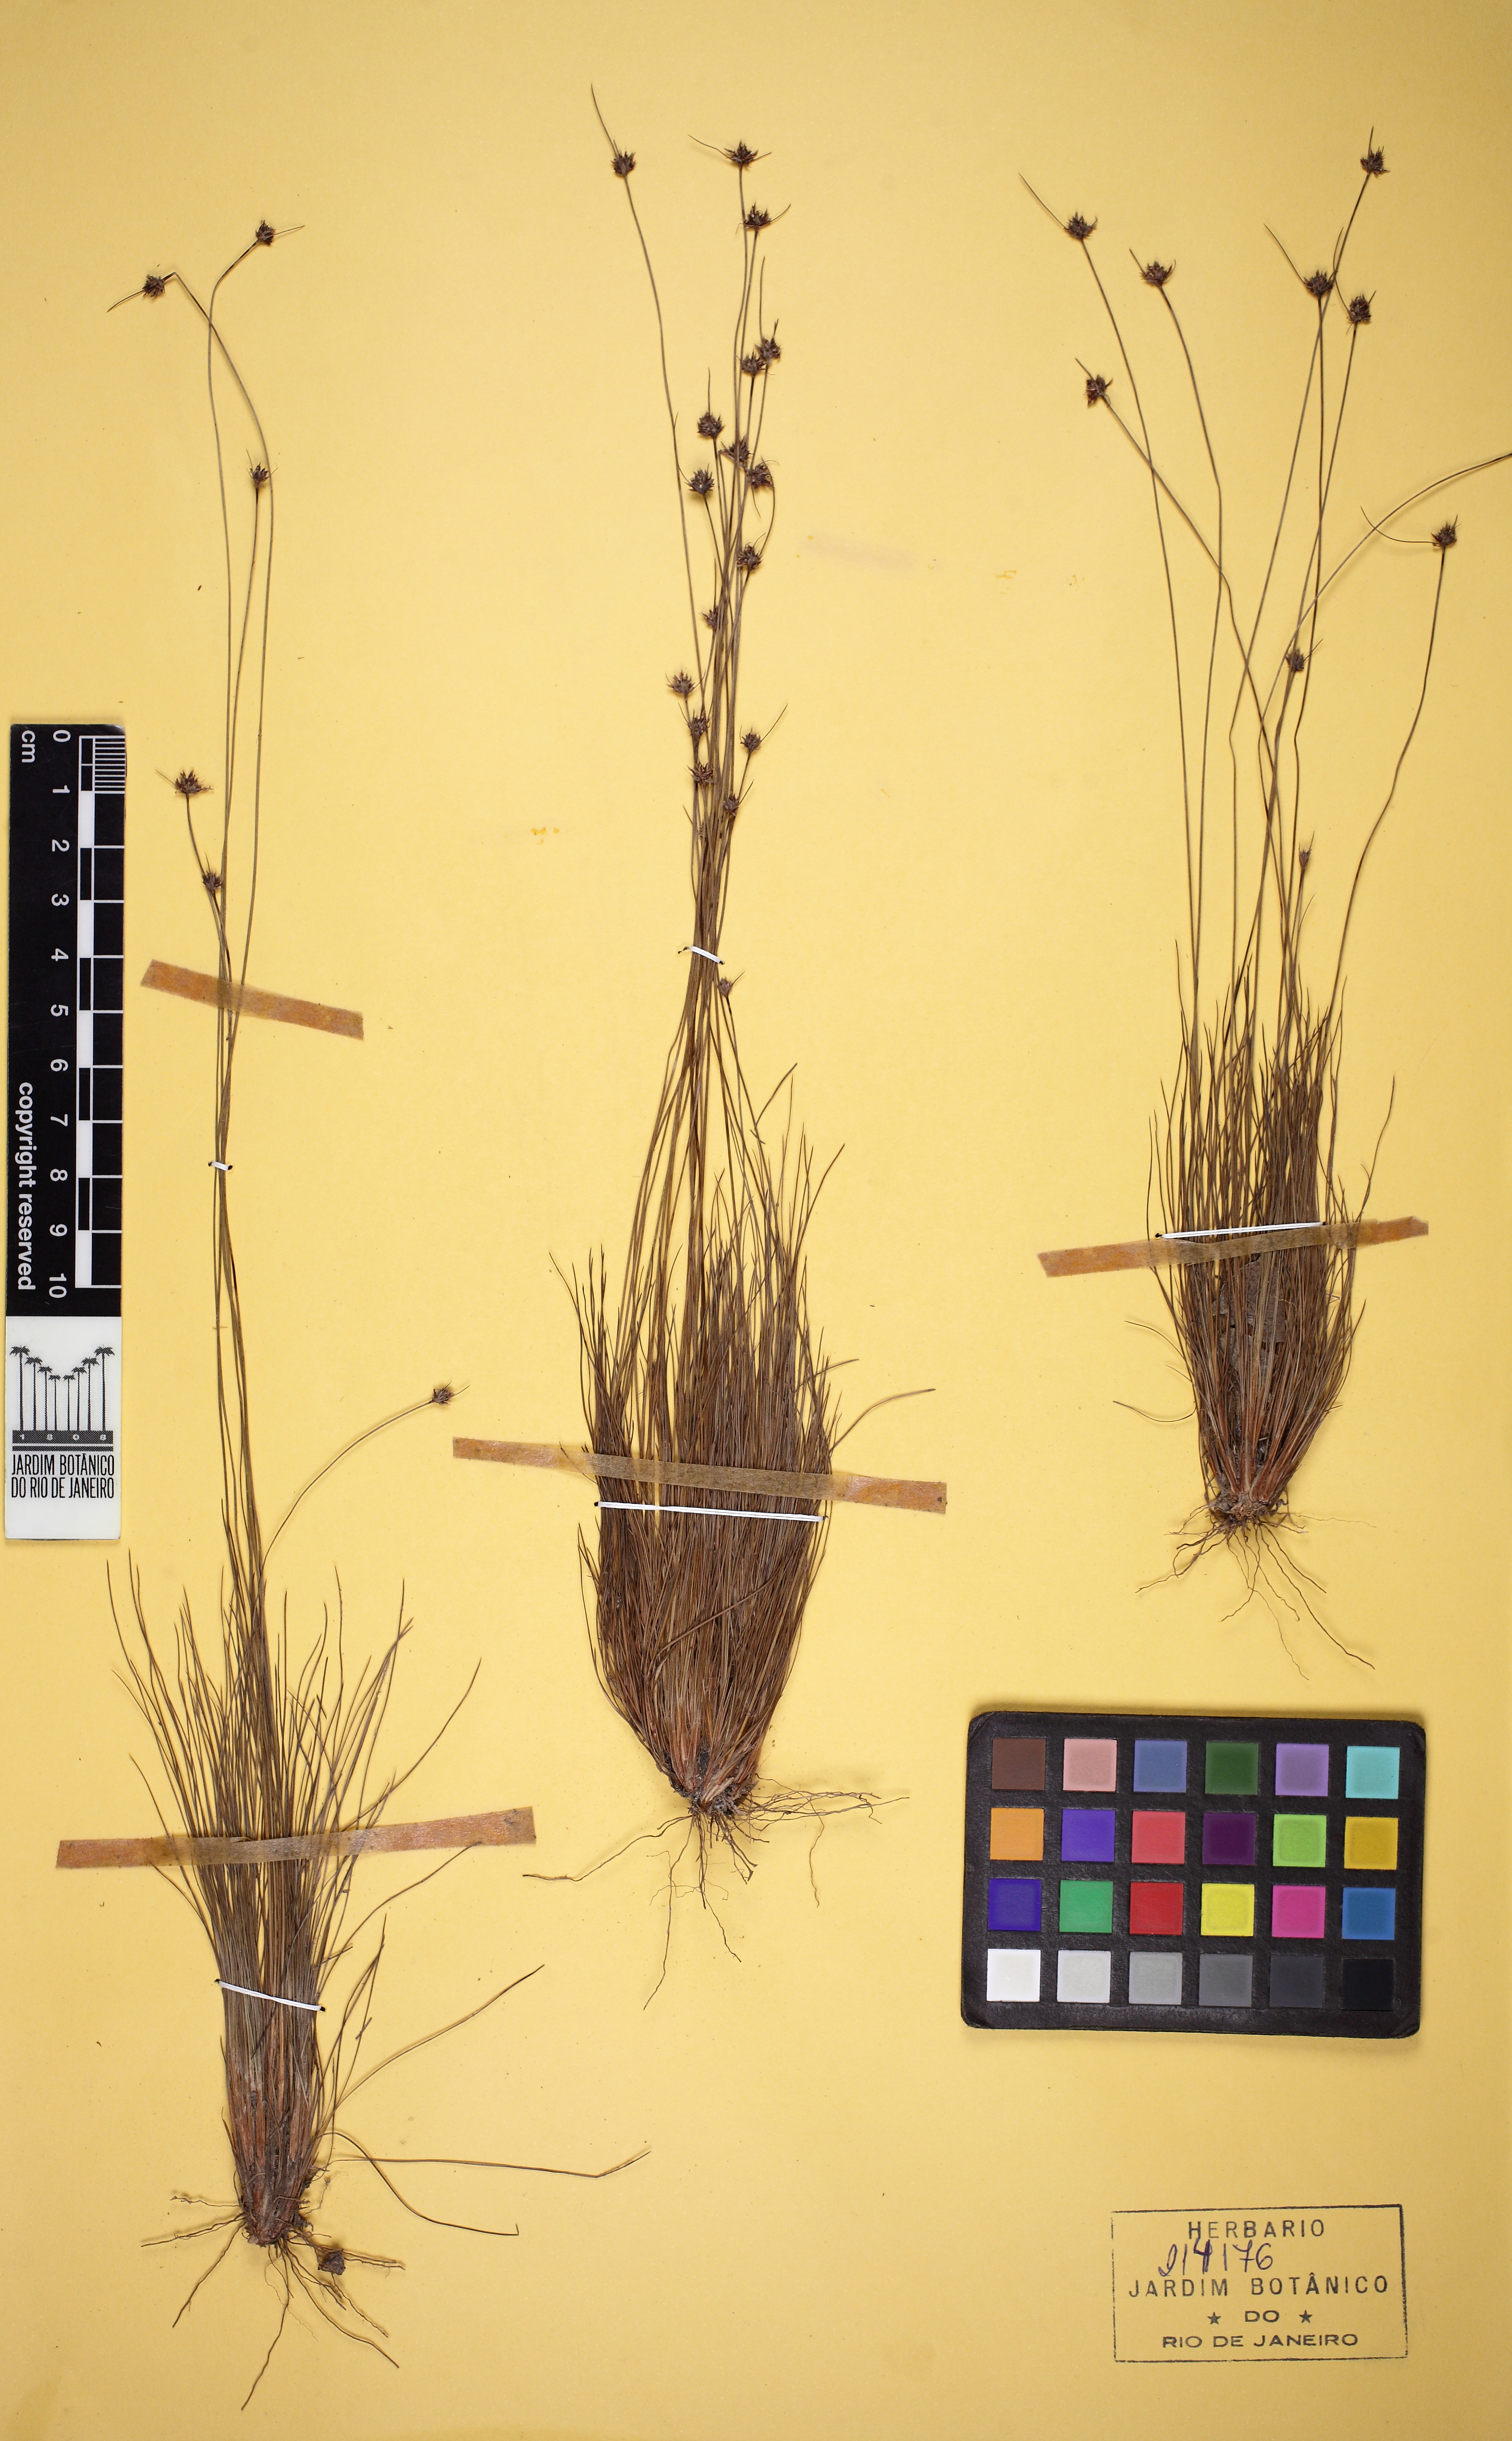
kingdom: Plantae
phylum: Tracheophyta
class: Liliopsida
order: Poales
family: Cyperaceae
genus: Bulbostylis
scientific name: Bulbostylis consanguinea
